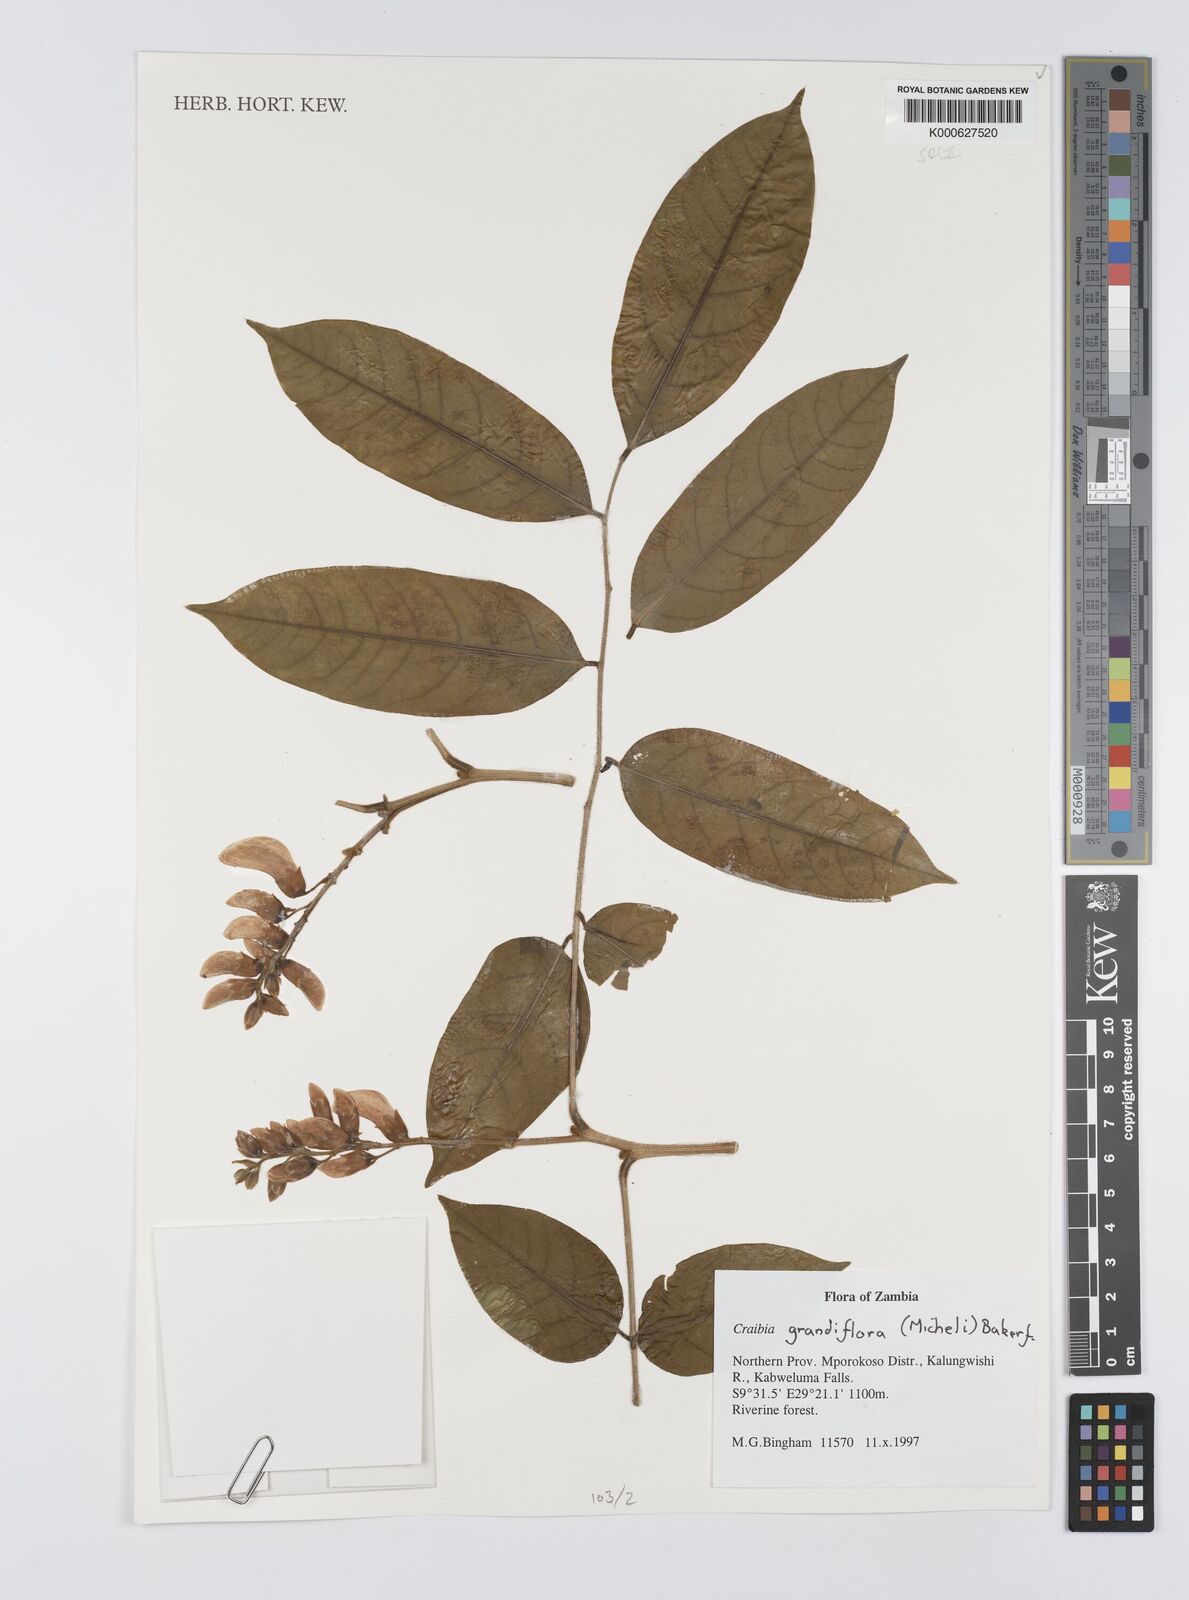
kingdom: Plantae
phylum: Tracheophyta
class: Magnoliopsida
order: Fabales
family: Fabaceae
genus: Craibia
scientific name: Craibia grandiflora
